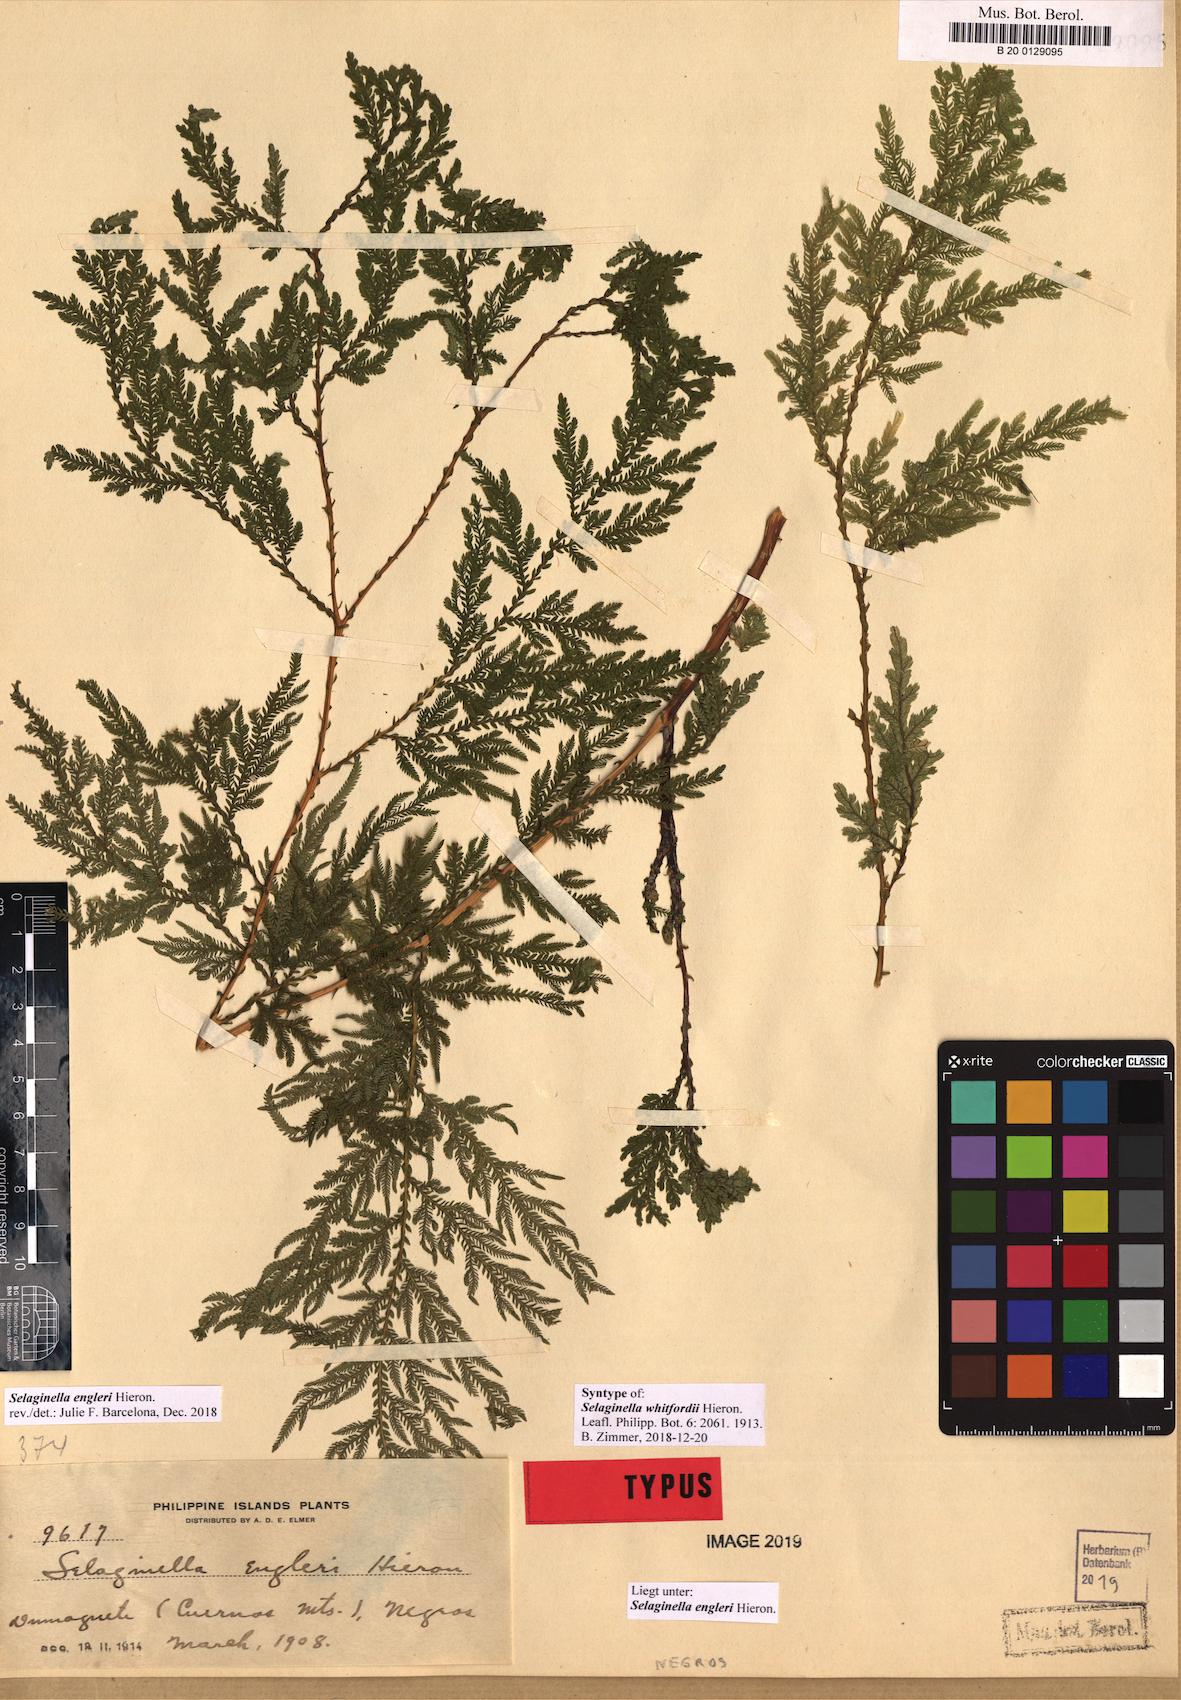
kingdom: Plantae
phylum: Tracheophyta
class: Lycopodiopsida
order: Selaginellales
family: Selaginellaceae
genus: Selaginella
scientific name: Selaginella engleri
